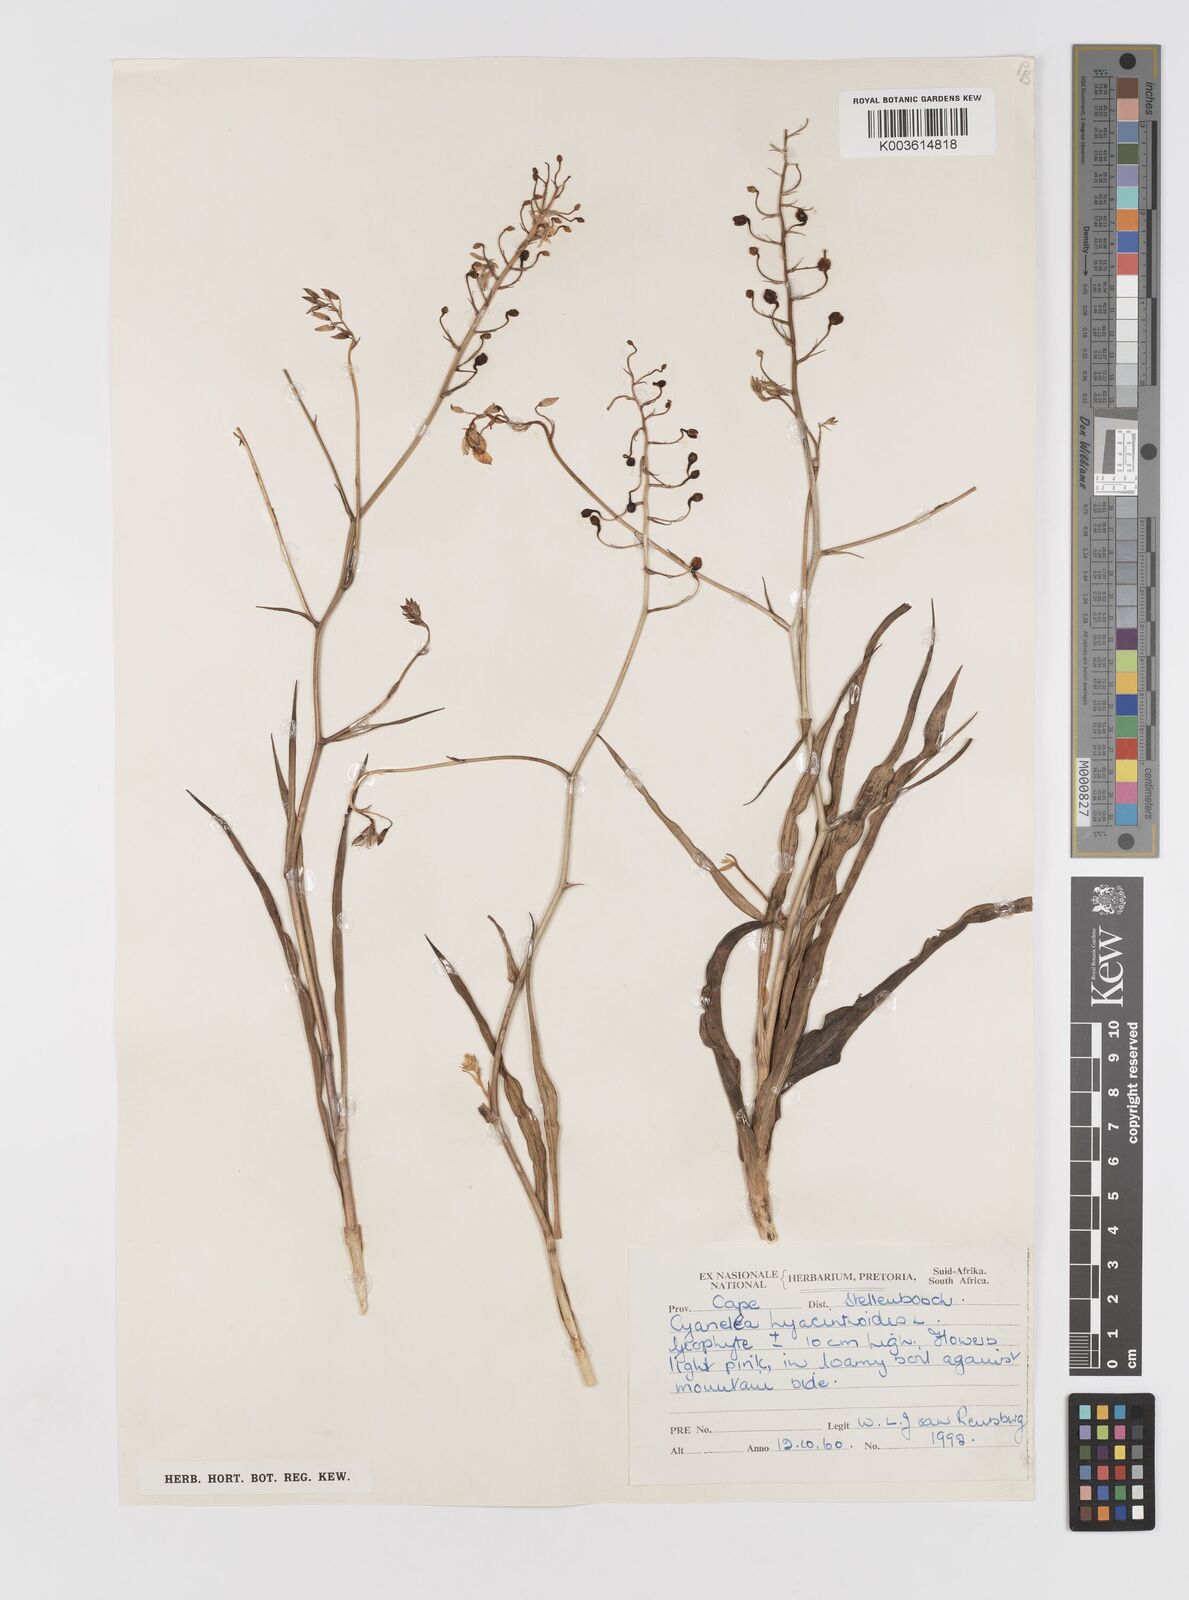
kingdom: Plantae
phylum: Tracheophyta
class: Liliopsida
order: Asparagales
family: Tecophilaeaceae
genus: Cyanella
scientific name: Cyanella hyacinthoides
